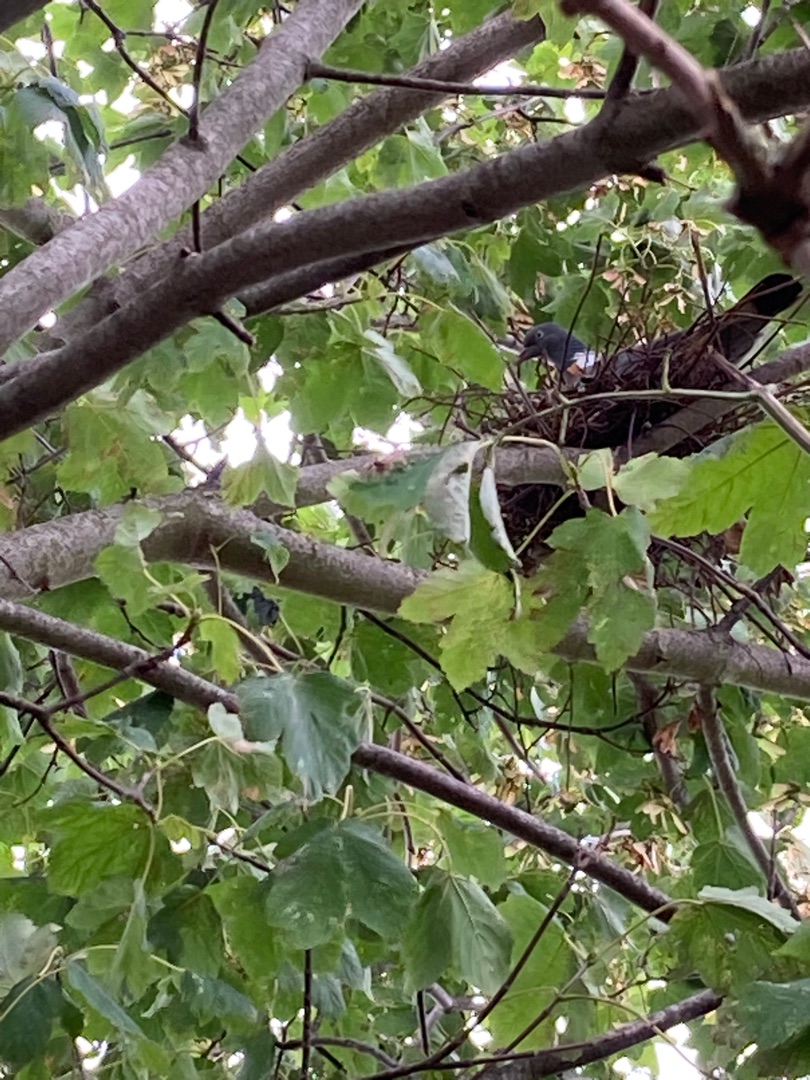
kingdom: Animalia
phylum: Chordata
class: Aves
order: Columbiformes
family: Columbidae
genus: Columba
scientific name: Columba palumbus
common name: Ringdue
